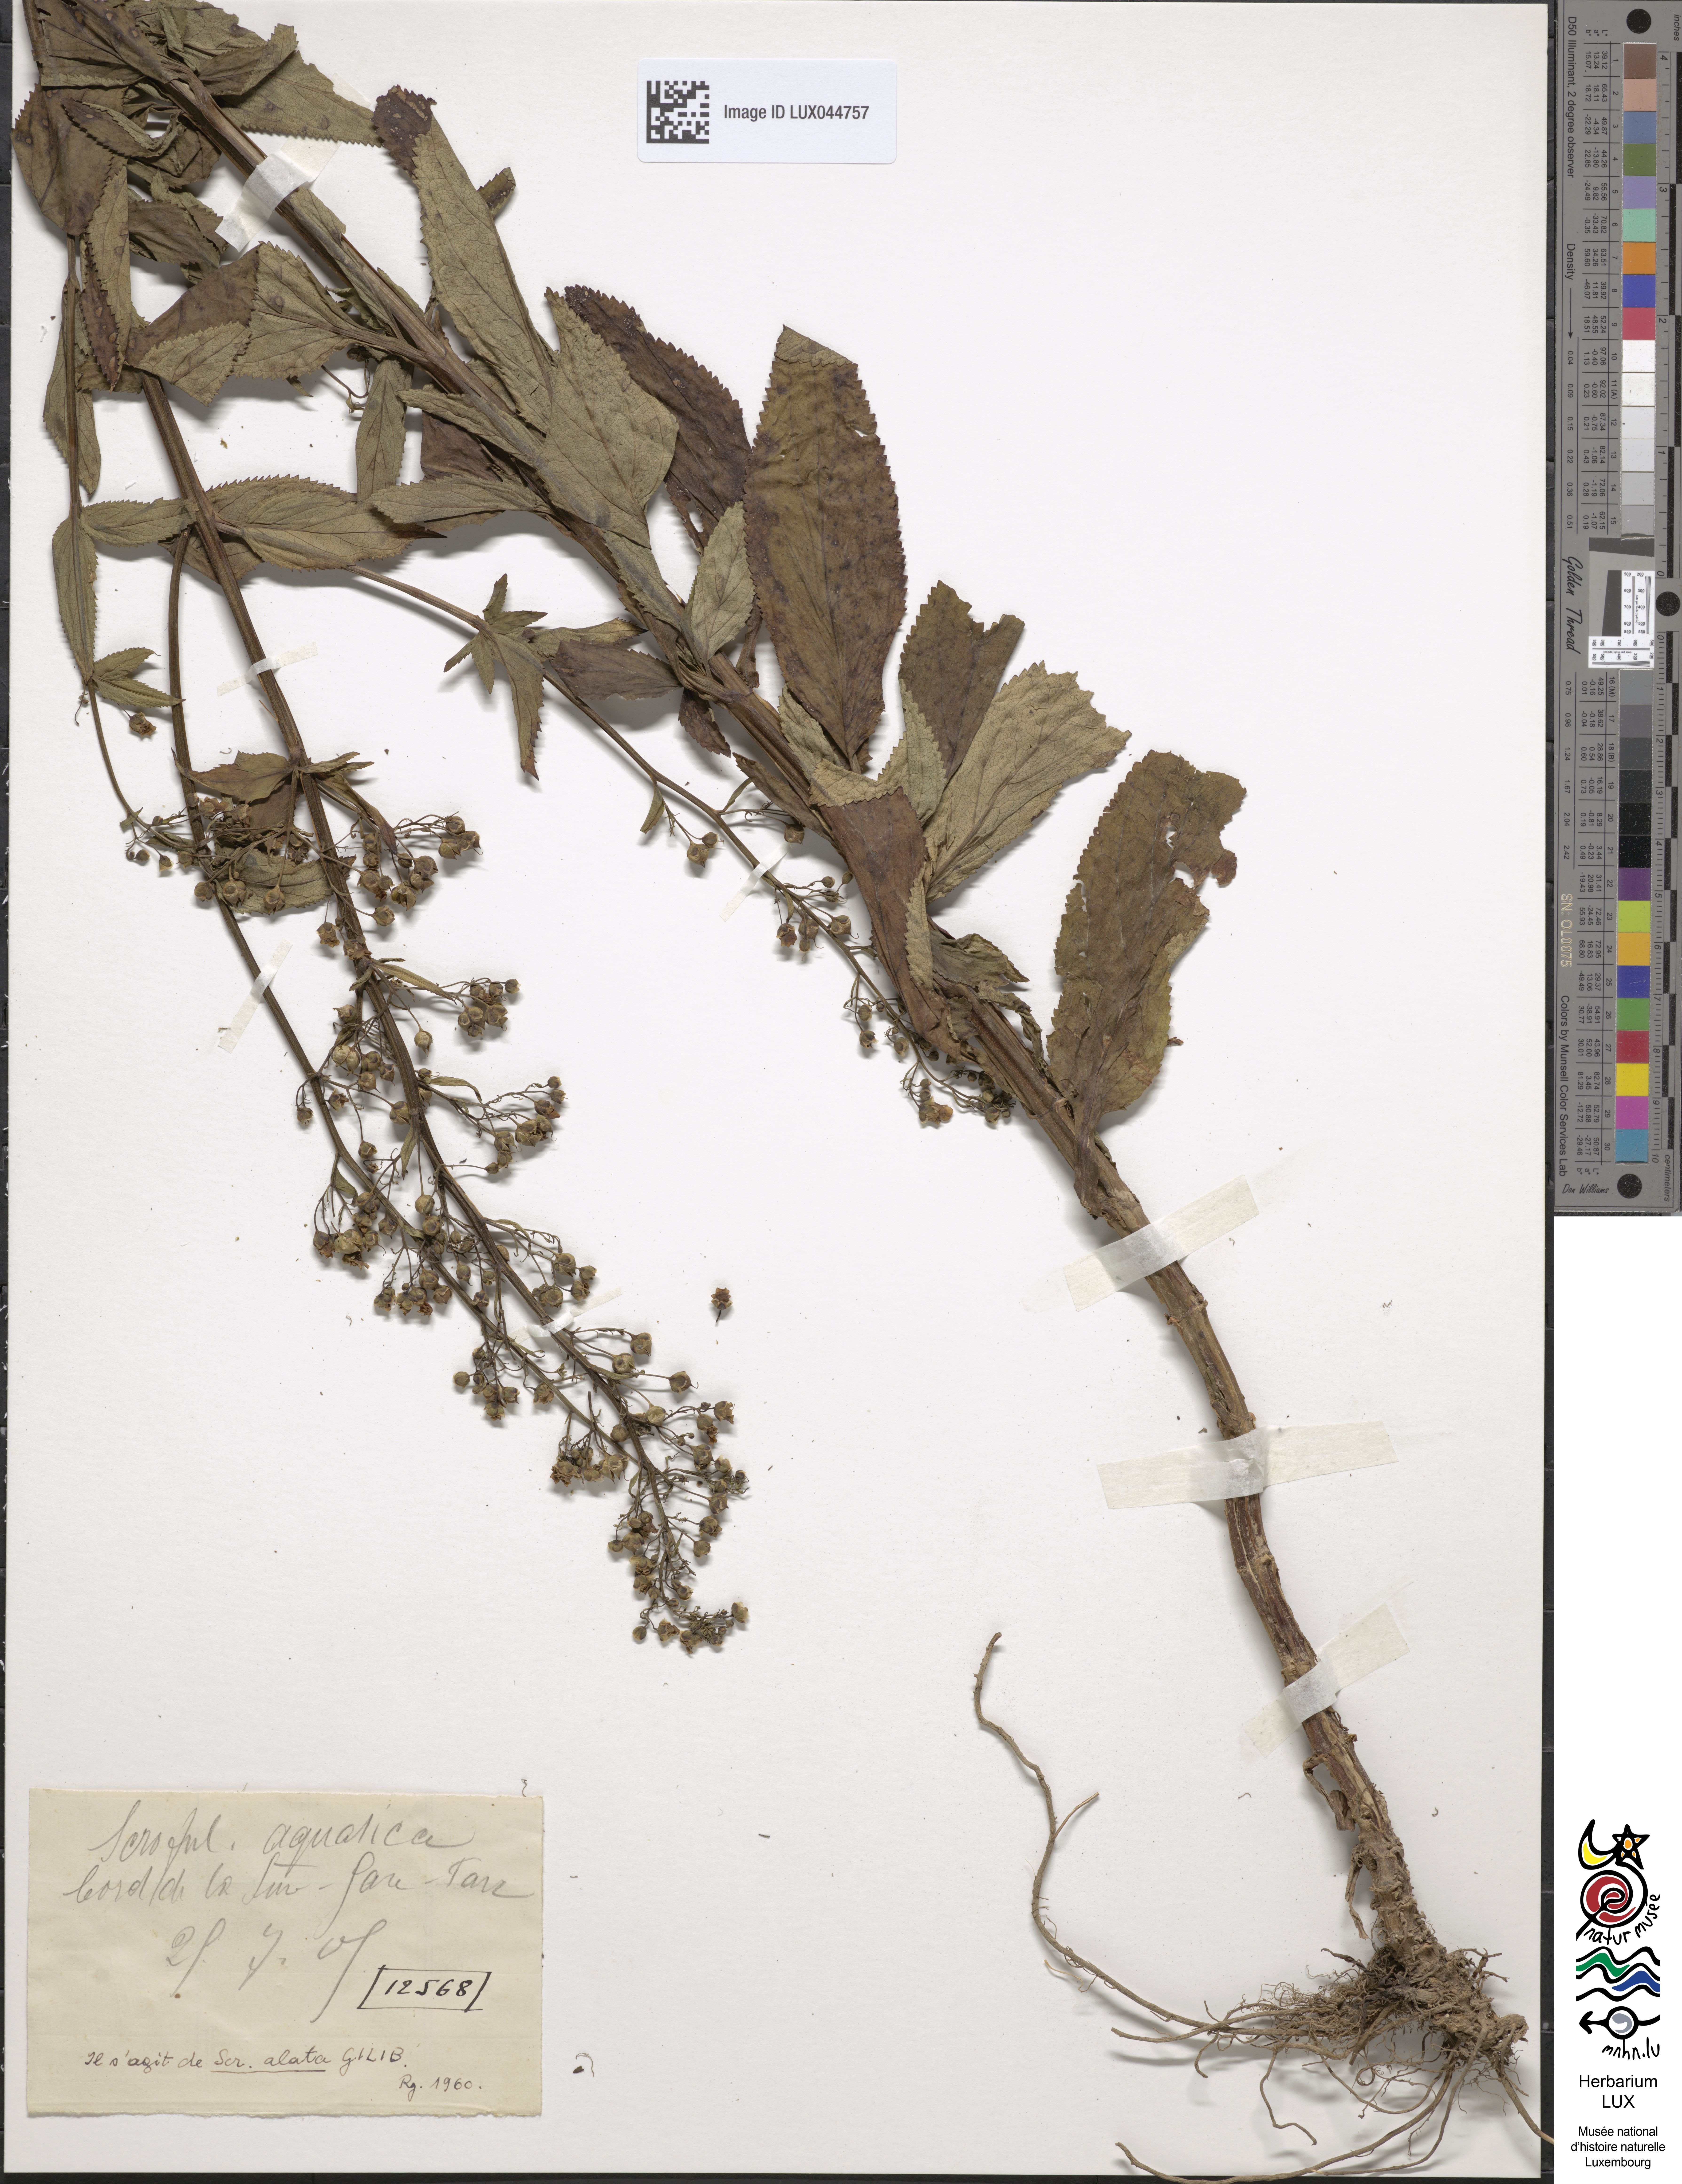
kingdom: Plantae
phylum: Tracheophyta
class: Magnoliopsida
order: Lamiales
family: Scrophulariaceae
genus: Scrophularia
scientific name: Scrophularia umbrosa
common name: Green figwort
